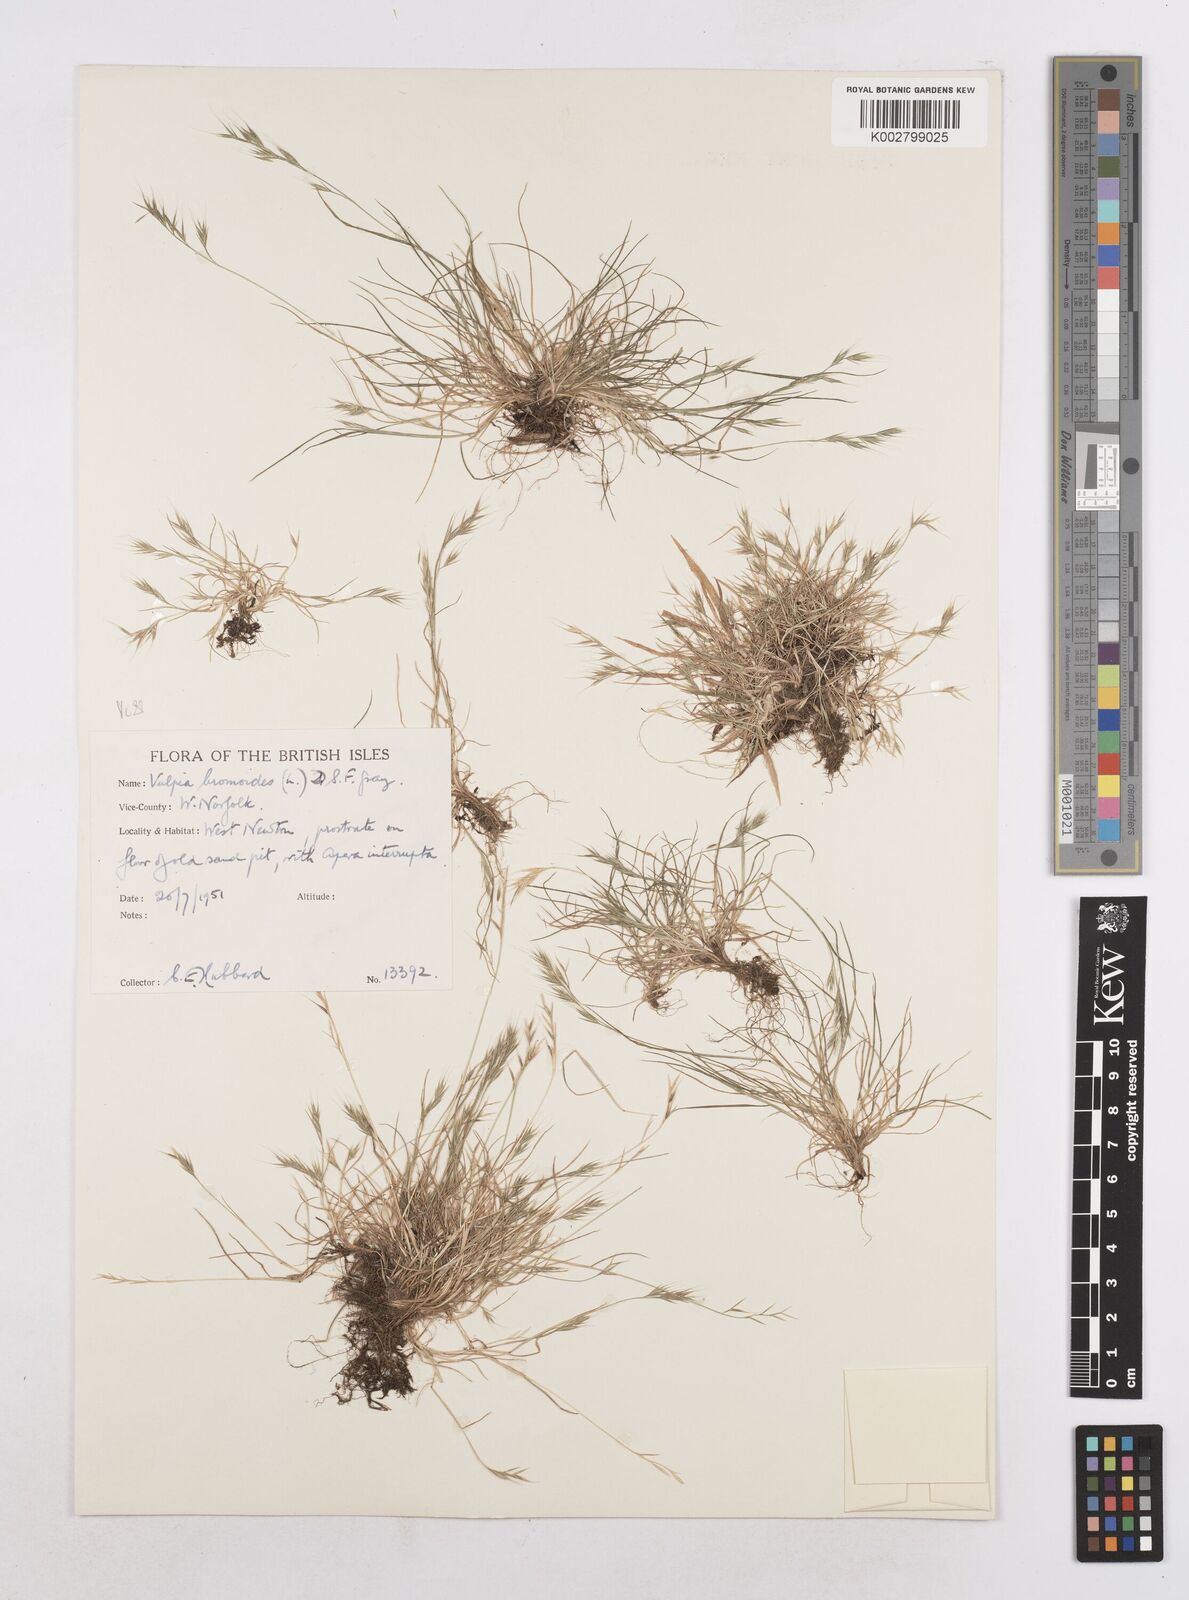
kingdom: Plantae
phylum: Tracheophyta
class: Liliopsida
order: Poales
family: Poaceae
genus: Festuca
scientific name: Festuca bromoides
